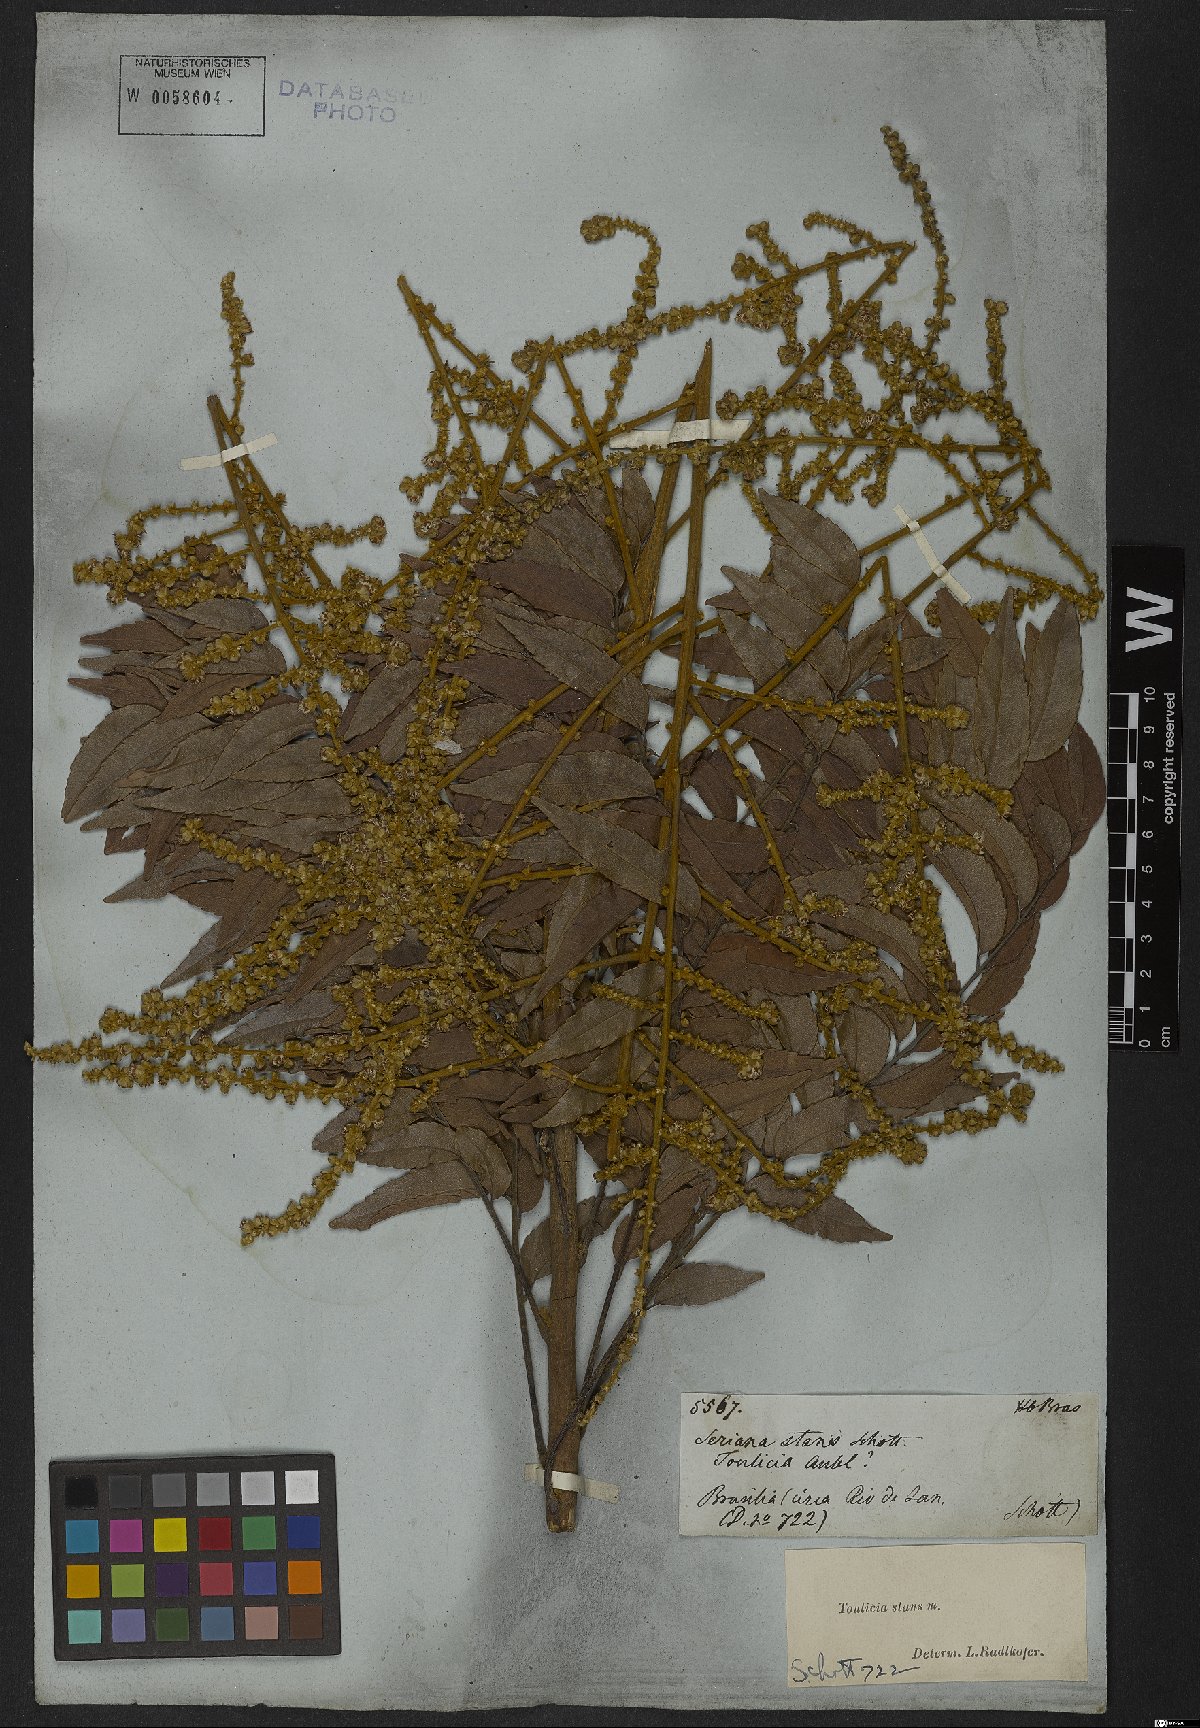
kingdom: Plantae
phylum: Tracheophyta
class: Magnoliopsida
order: Sapindales
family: Sapindaceae
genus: Toulicia
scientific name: Toulicia stans
